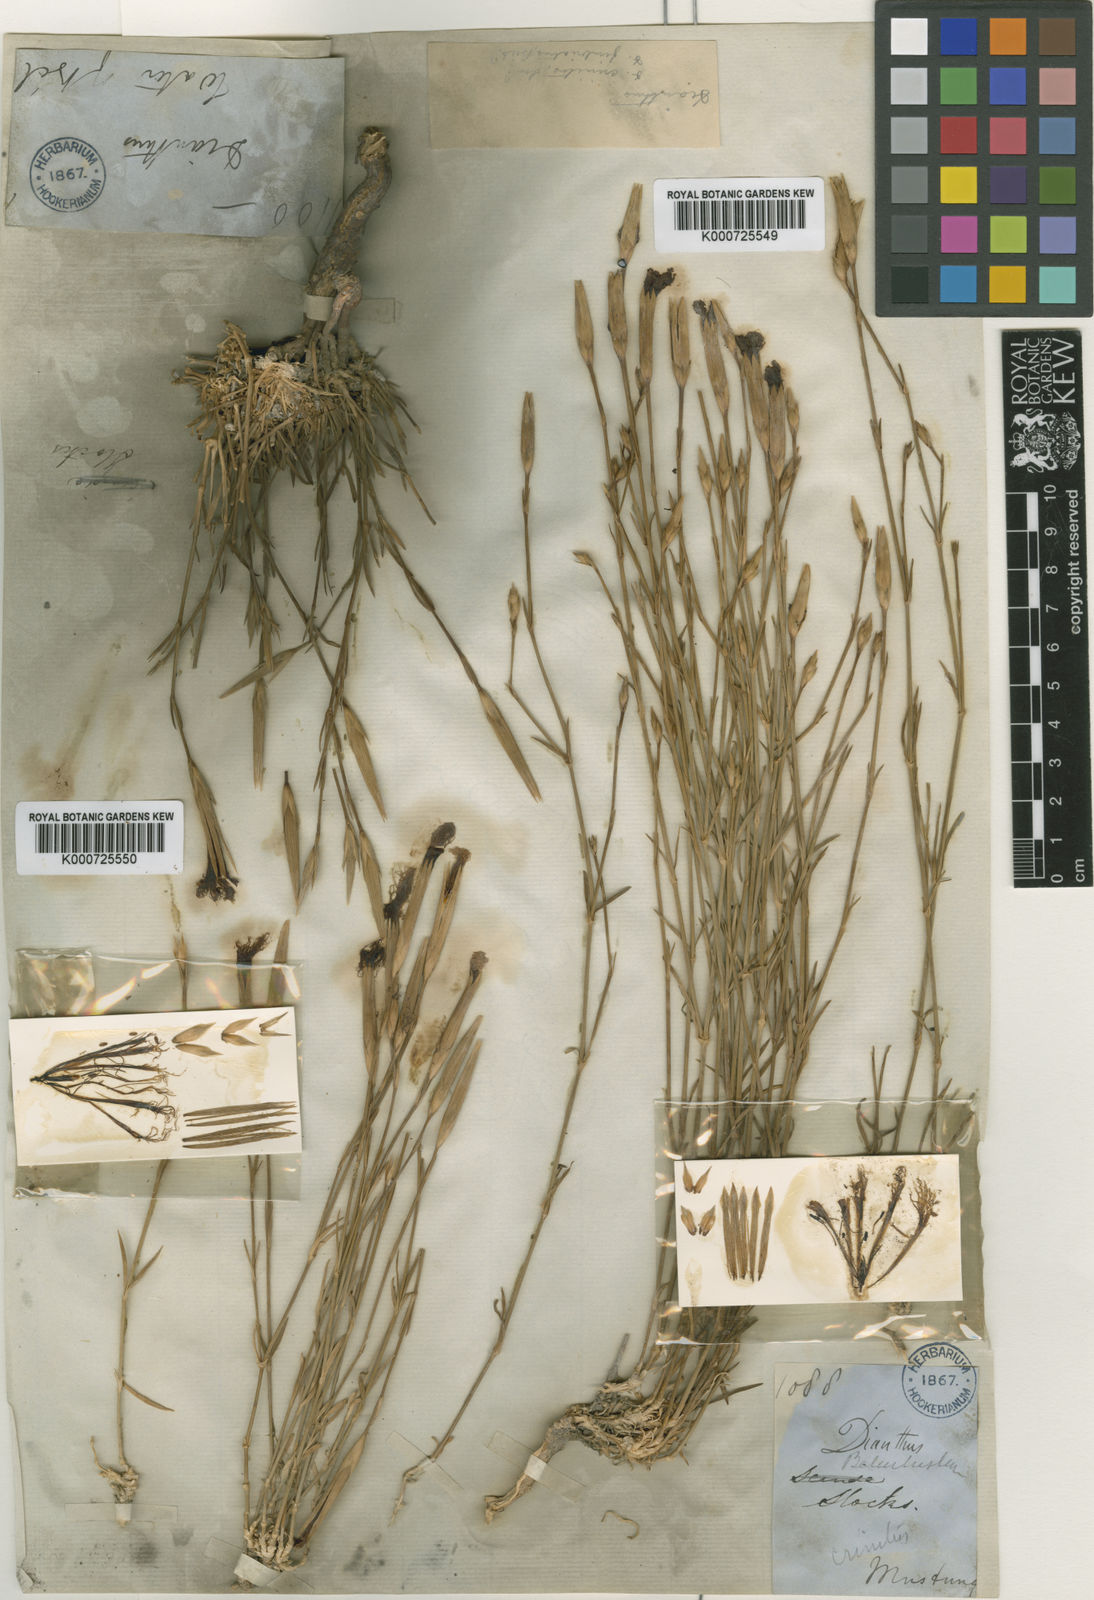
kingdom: Plantae
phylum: Tracheophyta
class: Magnoliopsida
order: Caryophyllales
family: Caryophyllaceae
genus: Dianthus
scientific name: Dianthus crinitus
